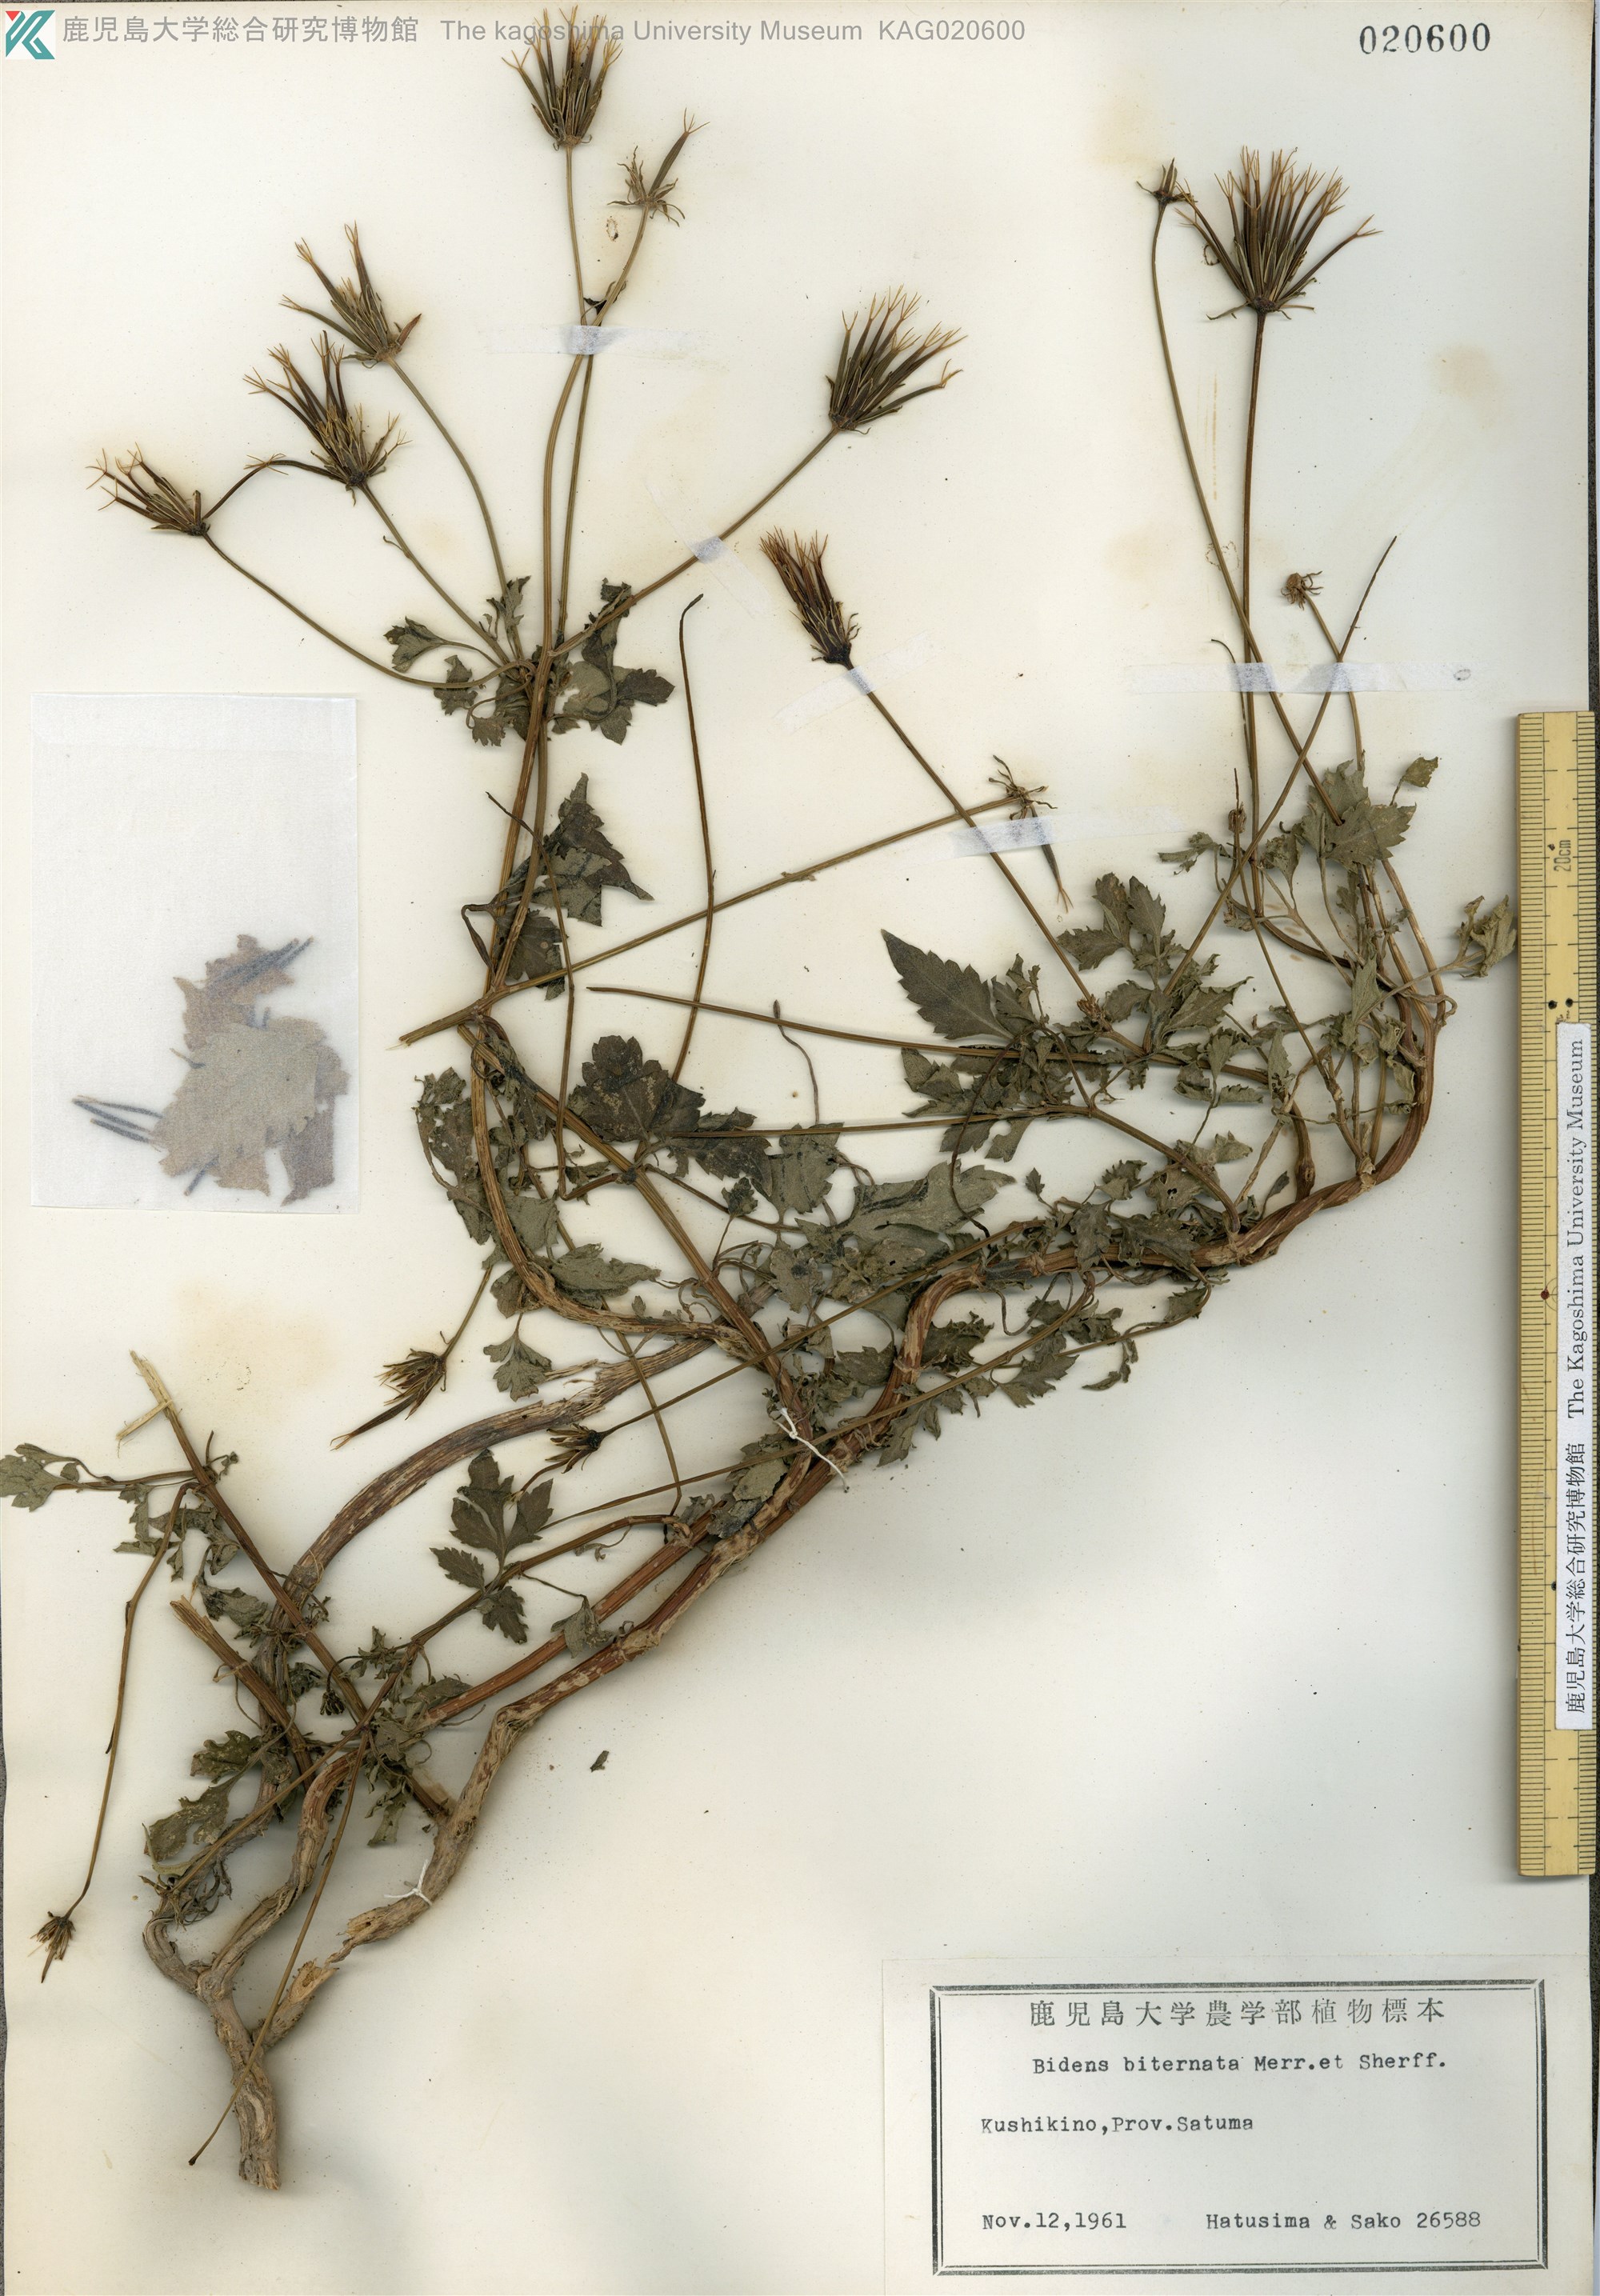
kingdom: Plantae
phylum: Tracheophyta
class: Magnoliopsida
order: Asterales
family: Asteraceae
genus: Bidens
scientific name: Bidens biternata
